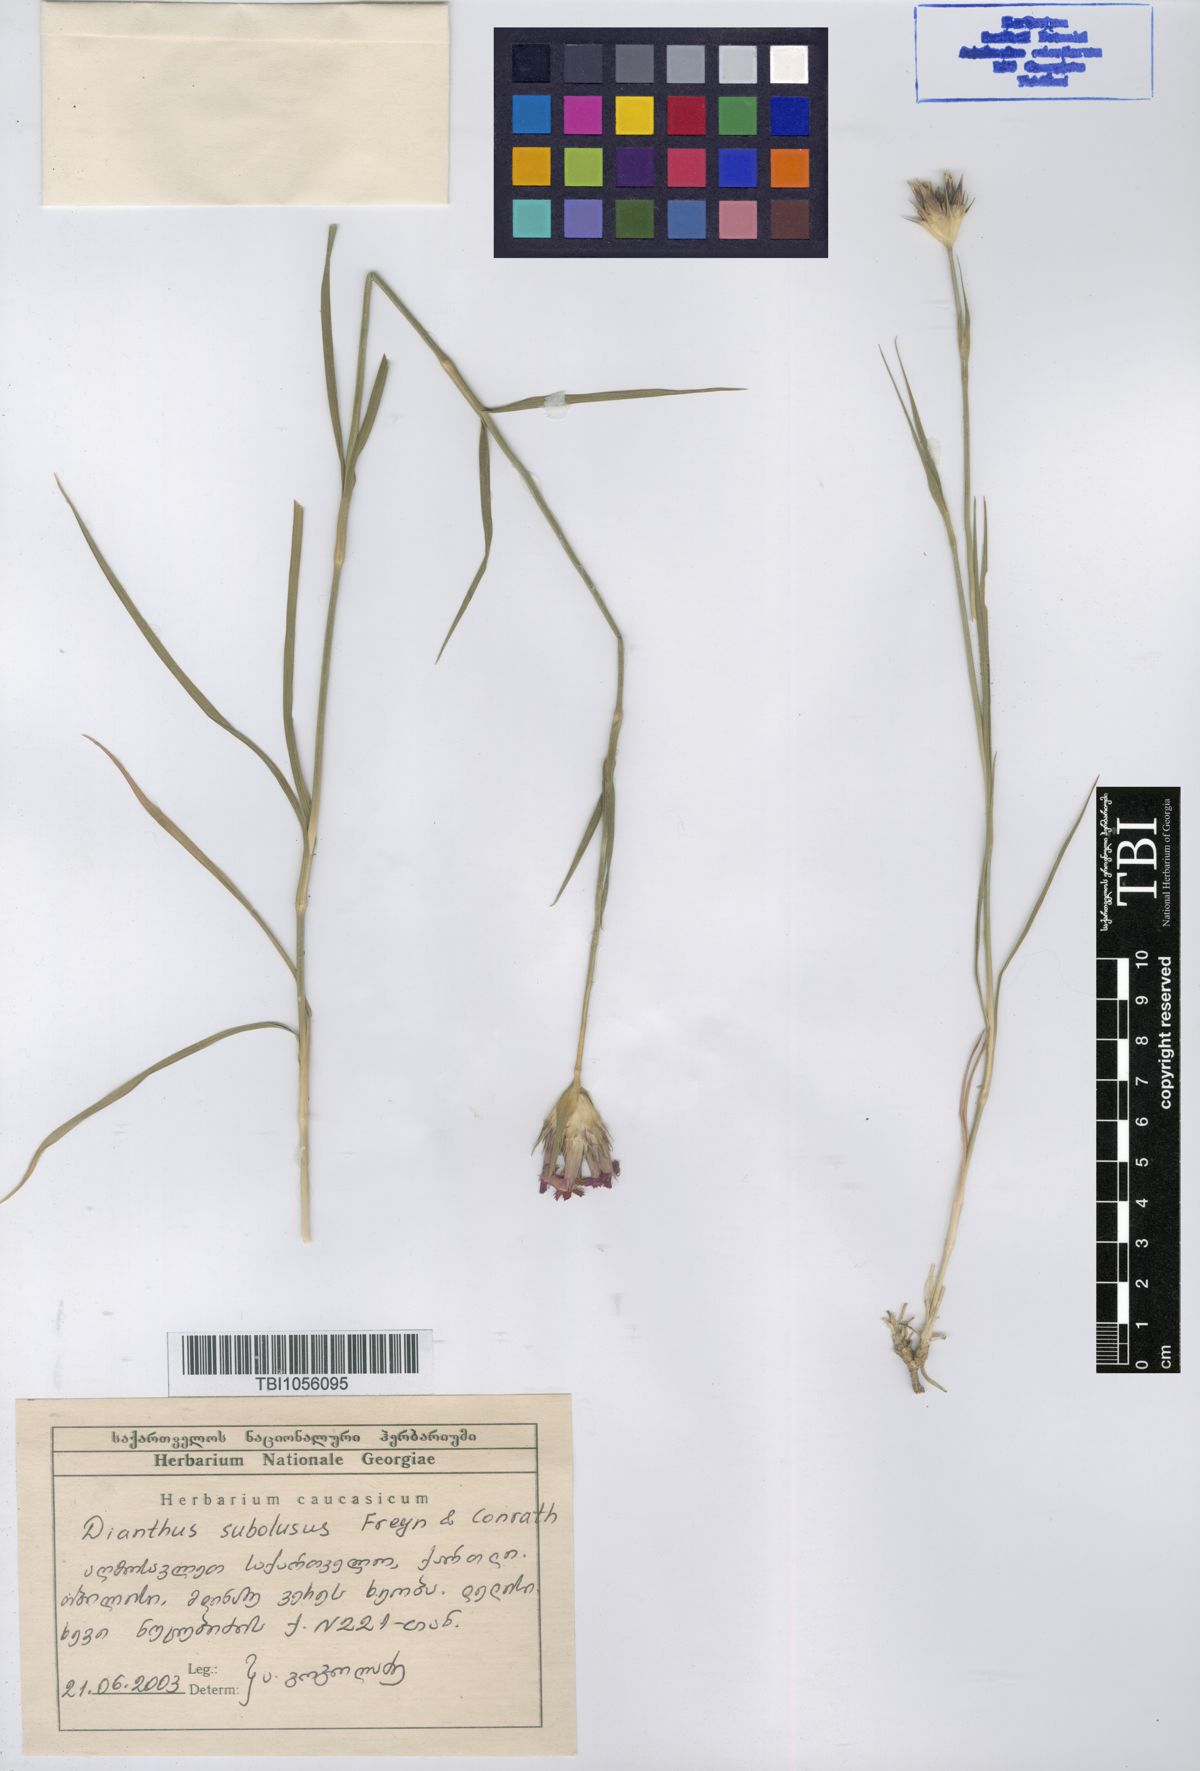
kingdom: Plantae
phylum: Tracheophyta
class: Magnoliopsida
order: Caryophyllales
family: Caryophyllaceae
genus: Dianthus
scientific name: Dianthus subulosus
